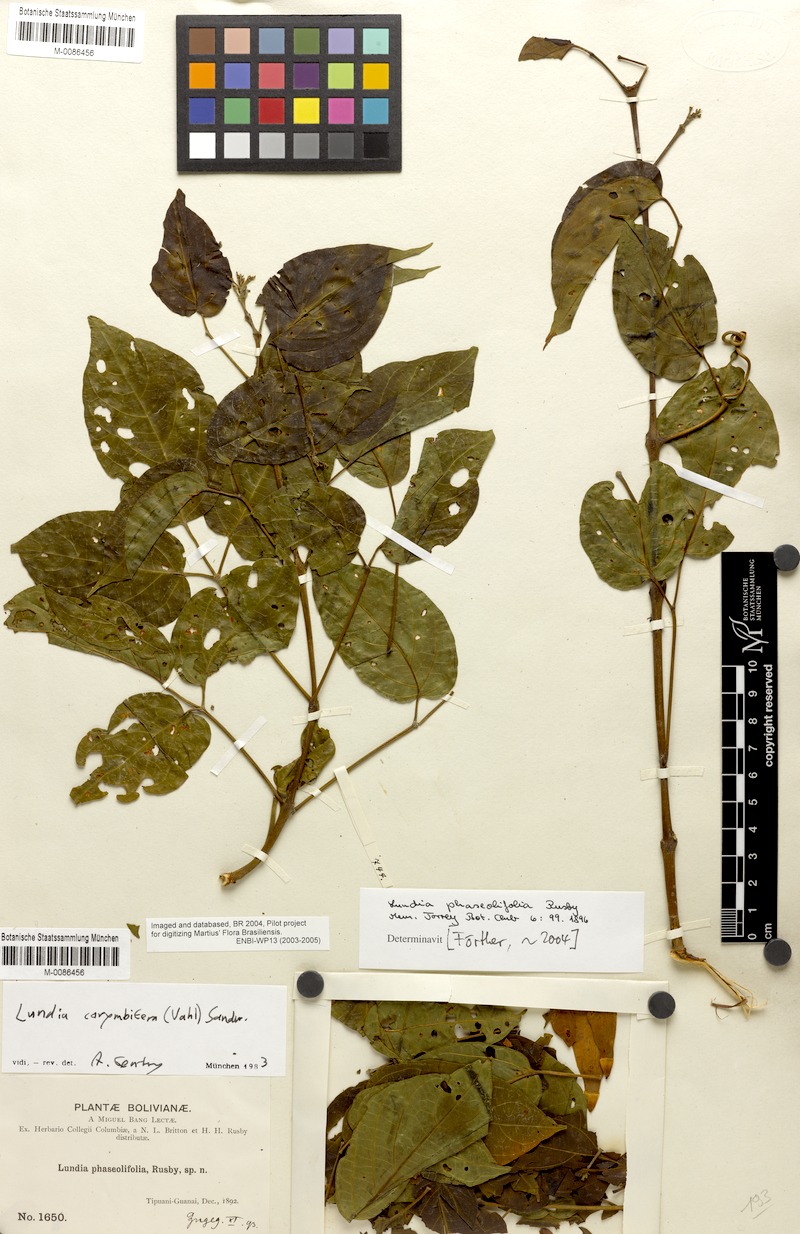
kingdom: Plantae
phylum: Tracheophyta
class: Magnoliopsida
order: Lamiales
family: Bignoniaceae
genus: Lundia
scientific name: Lundia corymbifera
